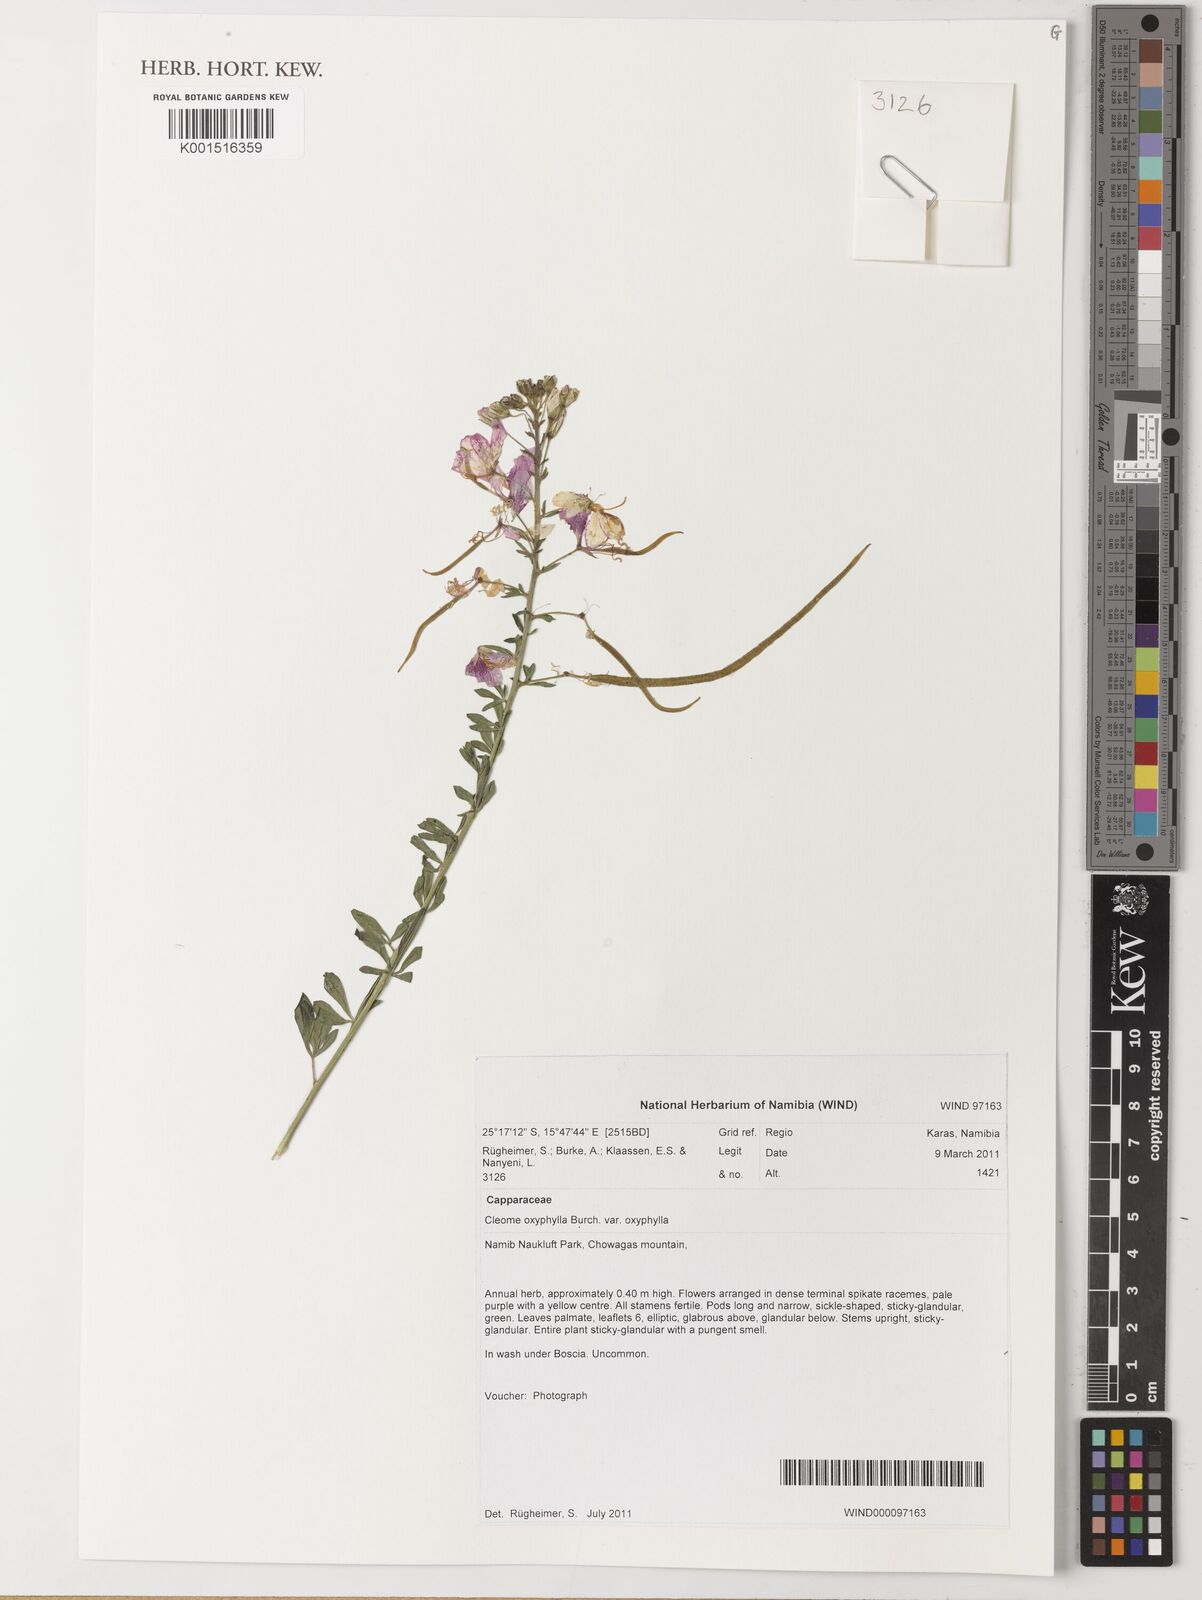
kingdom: Plantae
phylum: Tracheophyta
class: Magnoliopsida
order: Brassicales
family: Cleomaceae
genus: Sieruela
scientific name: Sieruela oxyphylla
